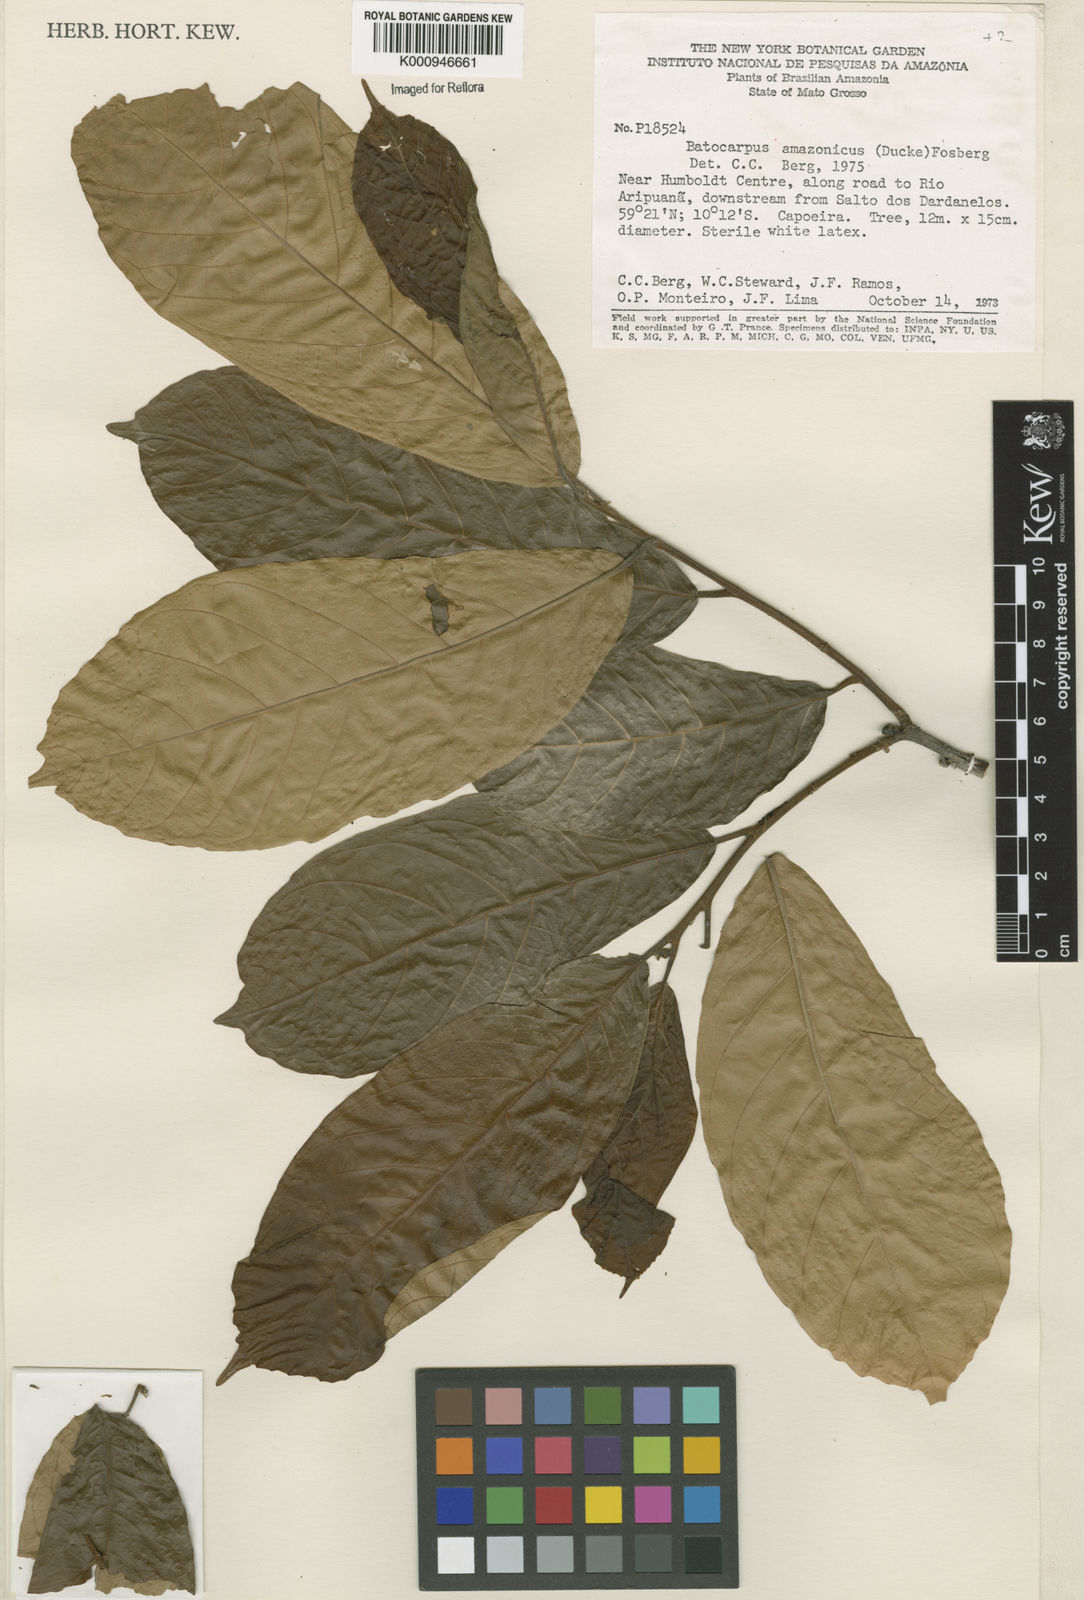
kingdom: Plantae
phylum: Tracheophyta
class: Magnoliopsida
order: Rosales
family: Moraceae
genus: Batocarpus
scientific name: Batocarpus amazonicus
